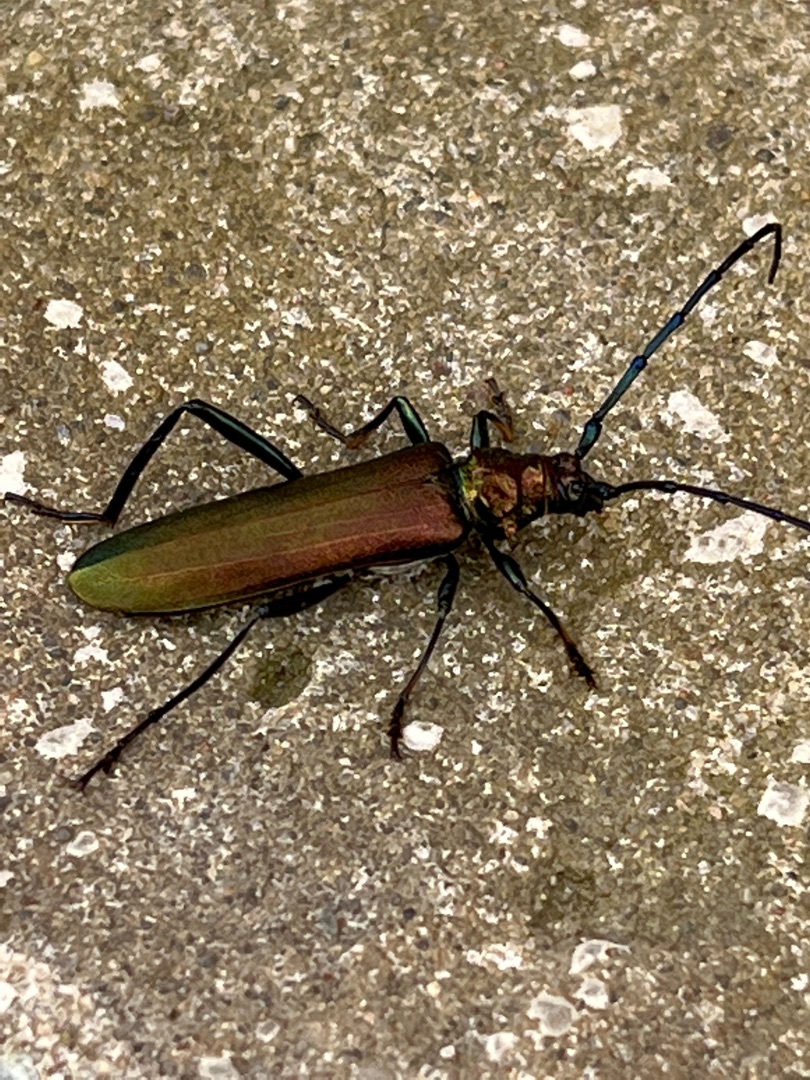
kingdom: Animalia
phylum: Arthropoda
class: Insecta
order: Coleoptera
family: Cerambycidae
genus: Aromia
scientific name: Aromia moschata
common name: Moskusbuk
